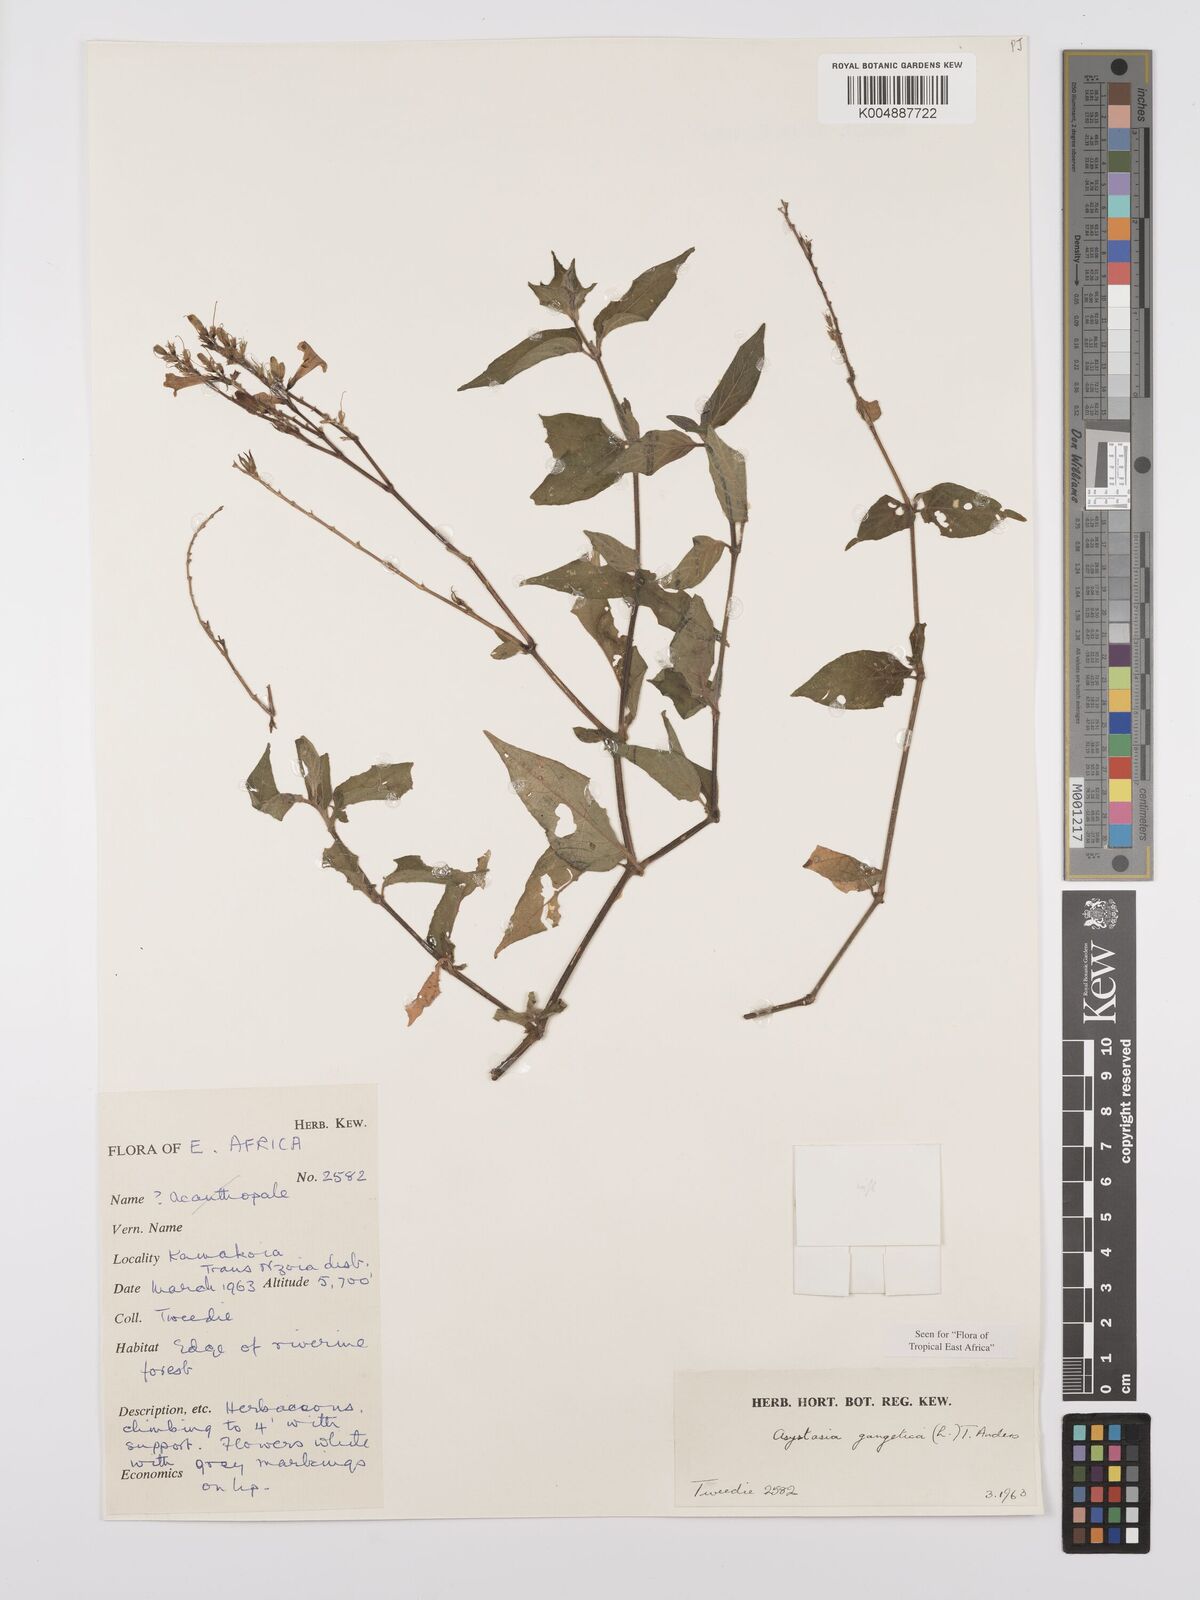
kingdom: Plantae
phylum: Tracheophyta
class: Magnoliopsida
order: Lamiales
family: Acanthaceae
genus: Asystasia
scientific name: Asystasia gangetica
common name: Chinese violet
